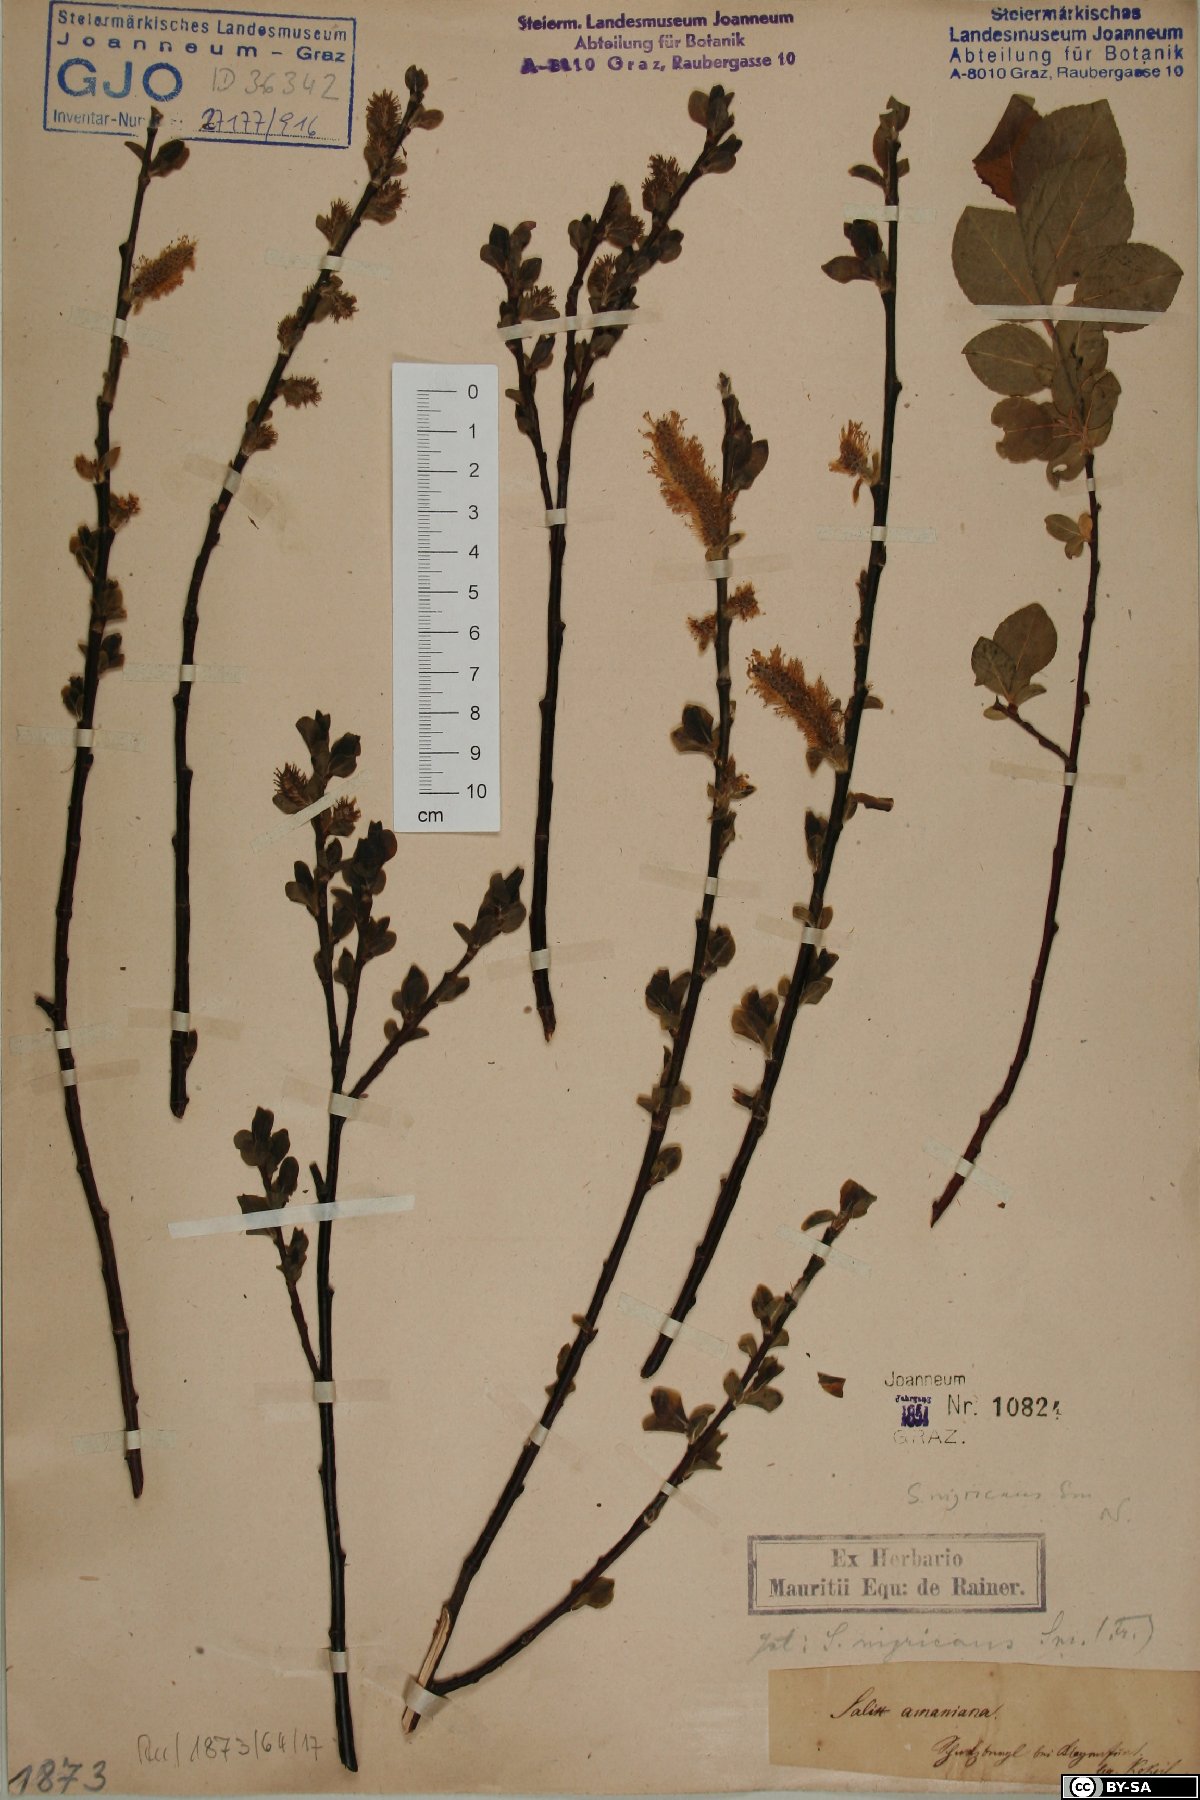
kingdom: Plantae
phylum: Tracheophyta
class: Magnoliopsida
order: Malpighiales
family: Salicaceae
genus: Salix
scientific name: Salix myrsinifolia
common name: Dark-leaved willow
